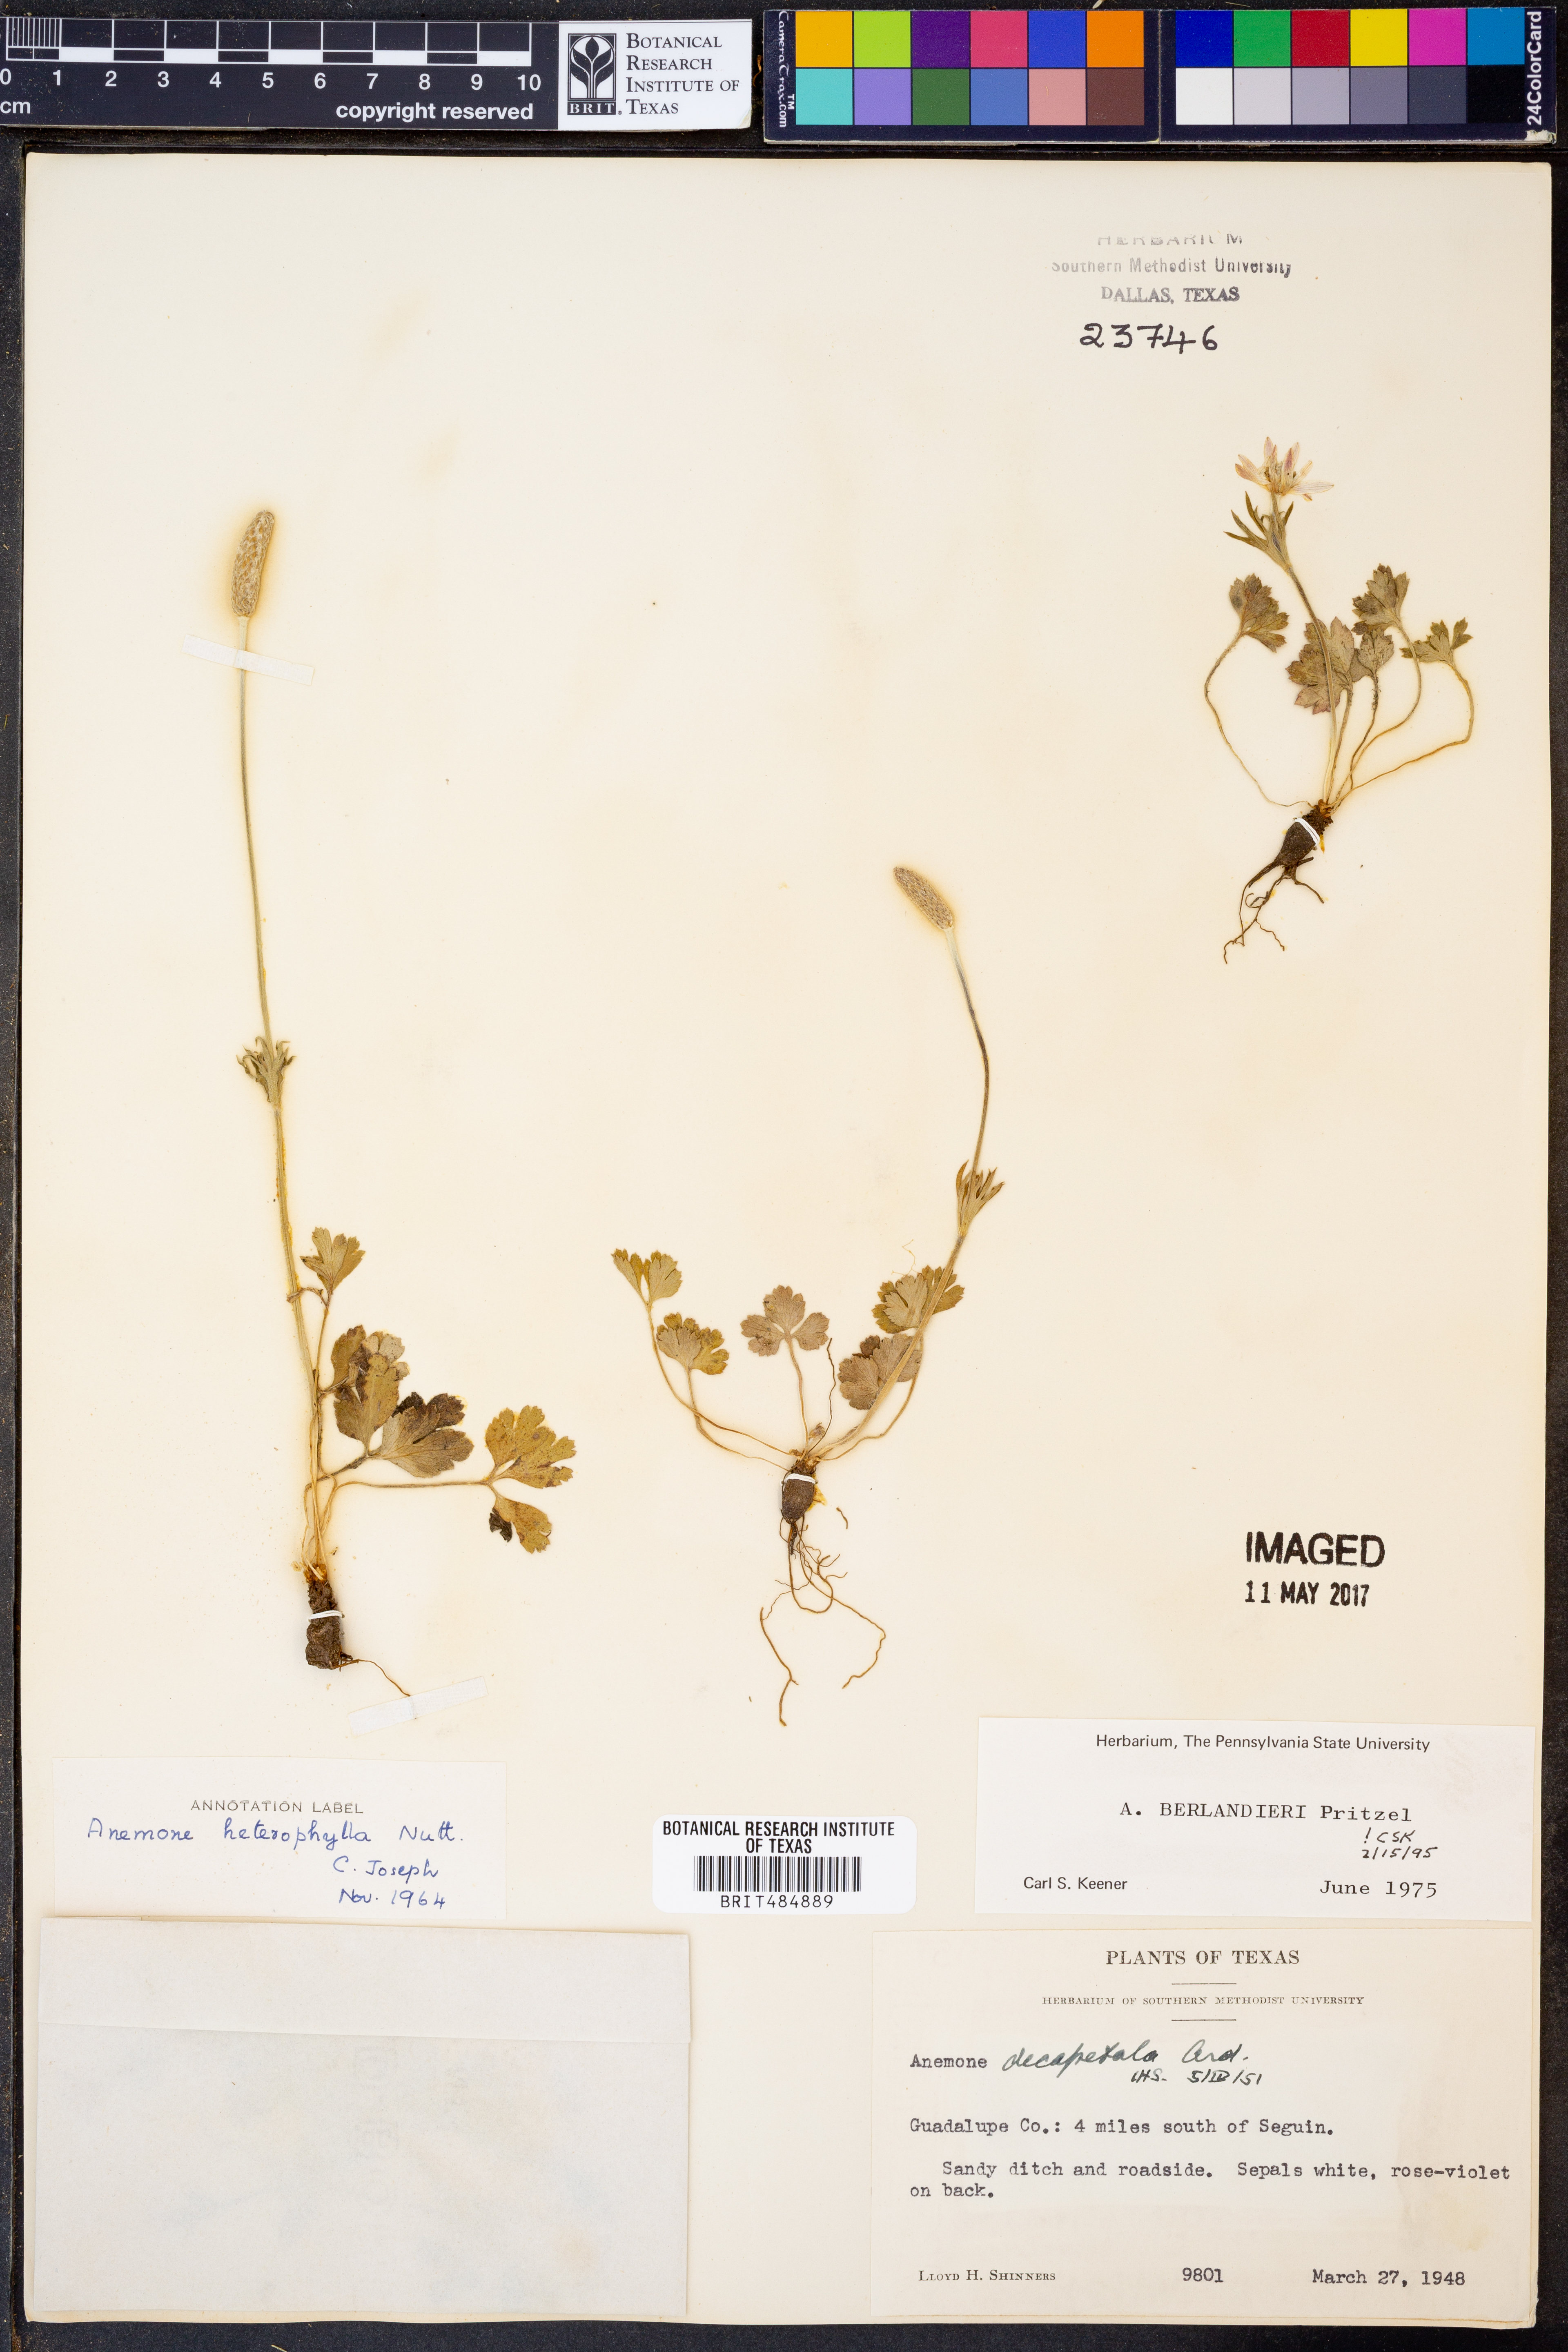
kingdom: Plantae
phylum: Tracheophyta
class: Magnoliopsida
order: Ranunculales
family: Ranunculaceae
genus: Anemone
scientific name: Anemone berlandieri
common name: Ten-petal anemone
